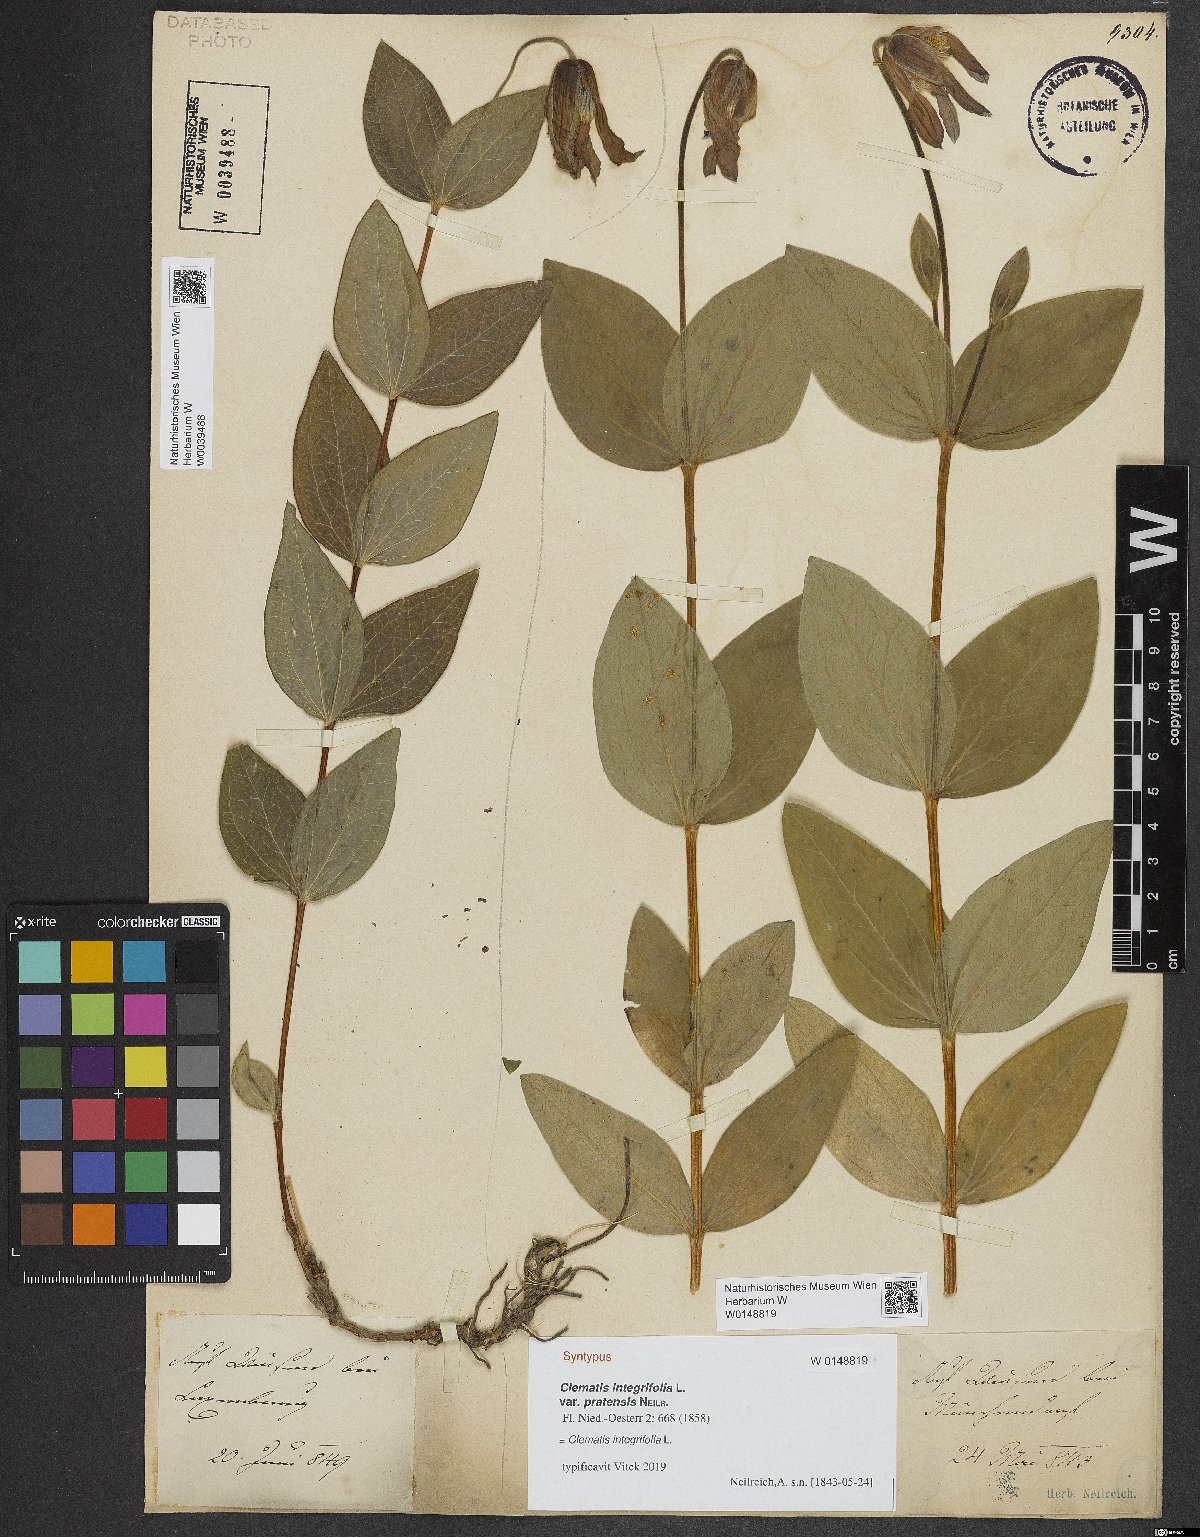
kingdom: Plantae
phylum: Tracheophyta
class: Magnoliopsida
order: Ranunculales
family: Ranunculaceae
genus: Clematis
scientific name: Clematis integrifolia
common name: Solitary clematis
